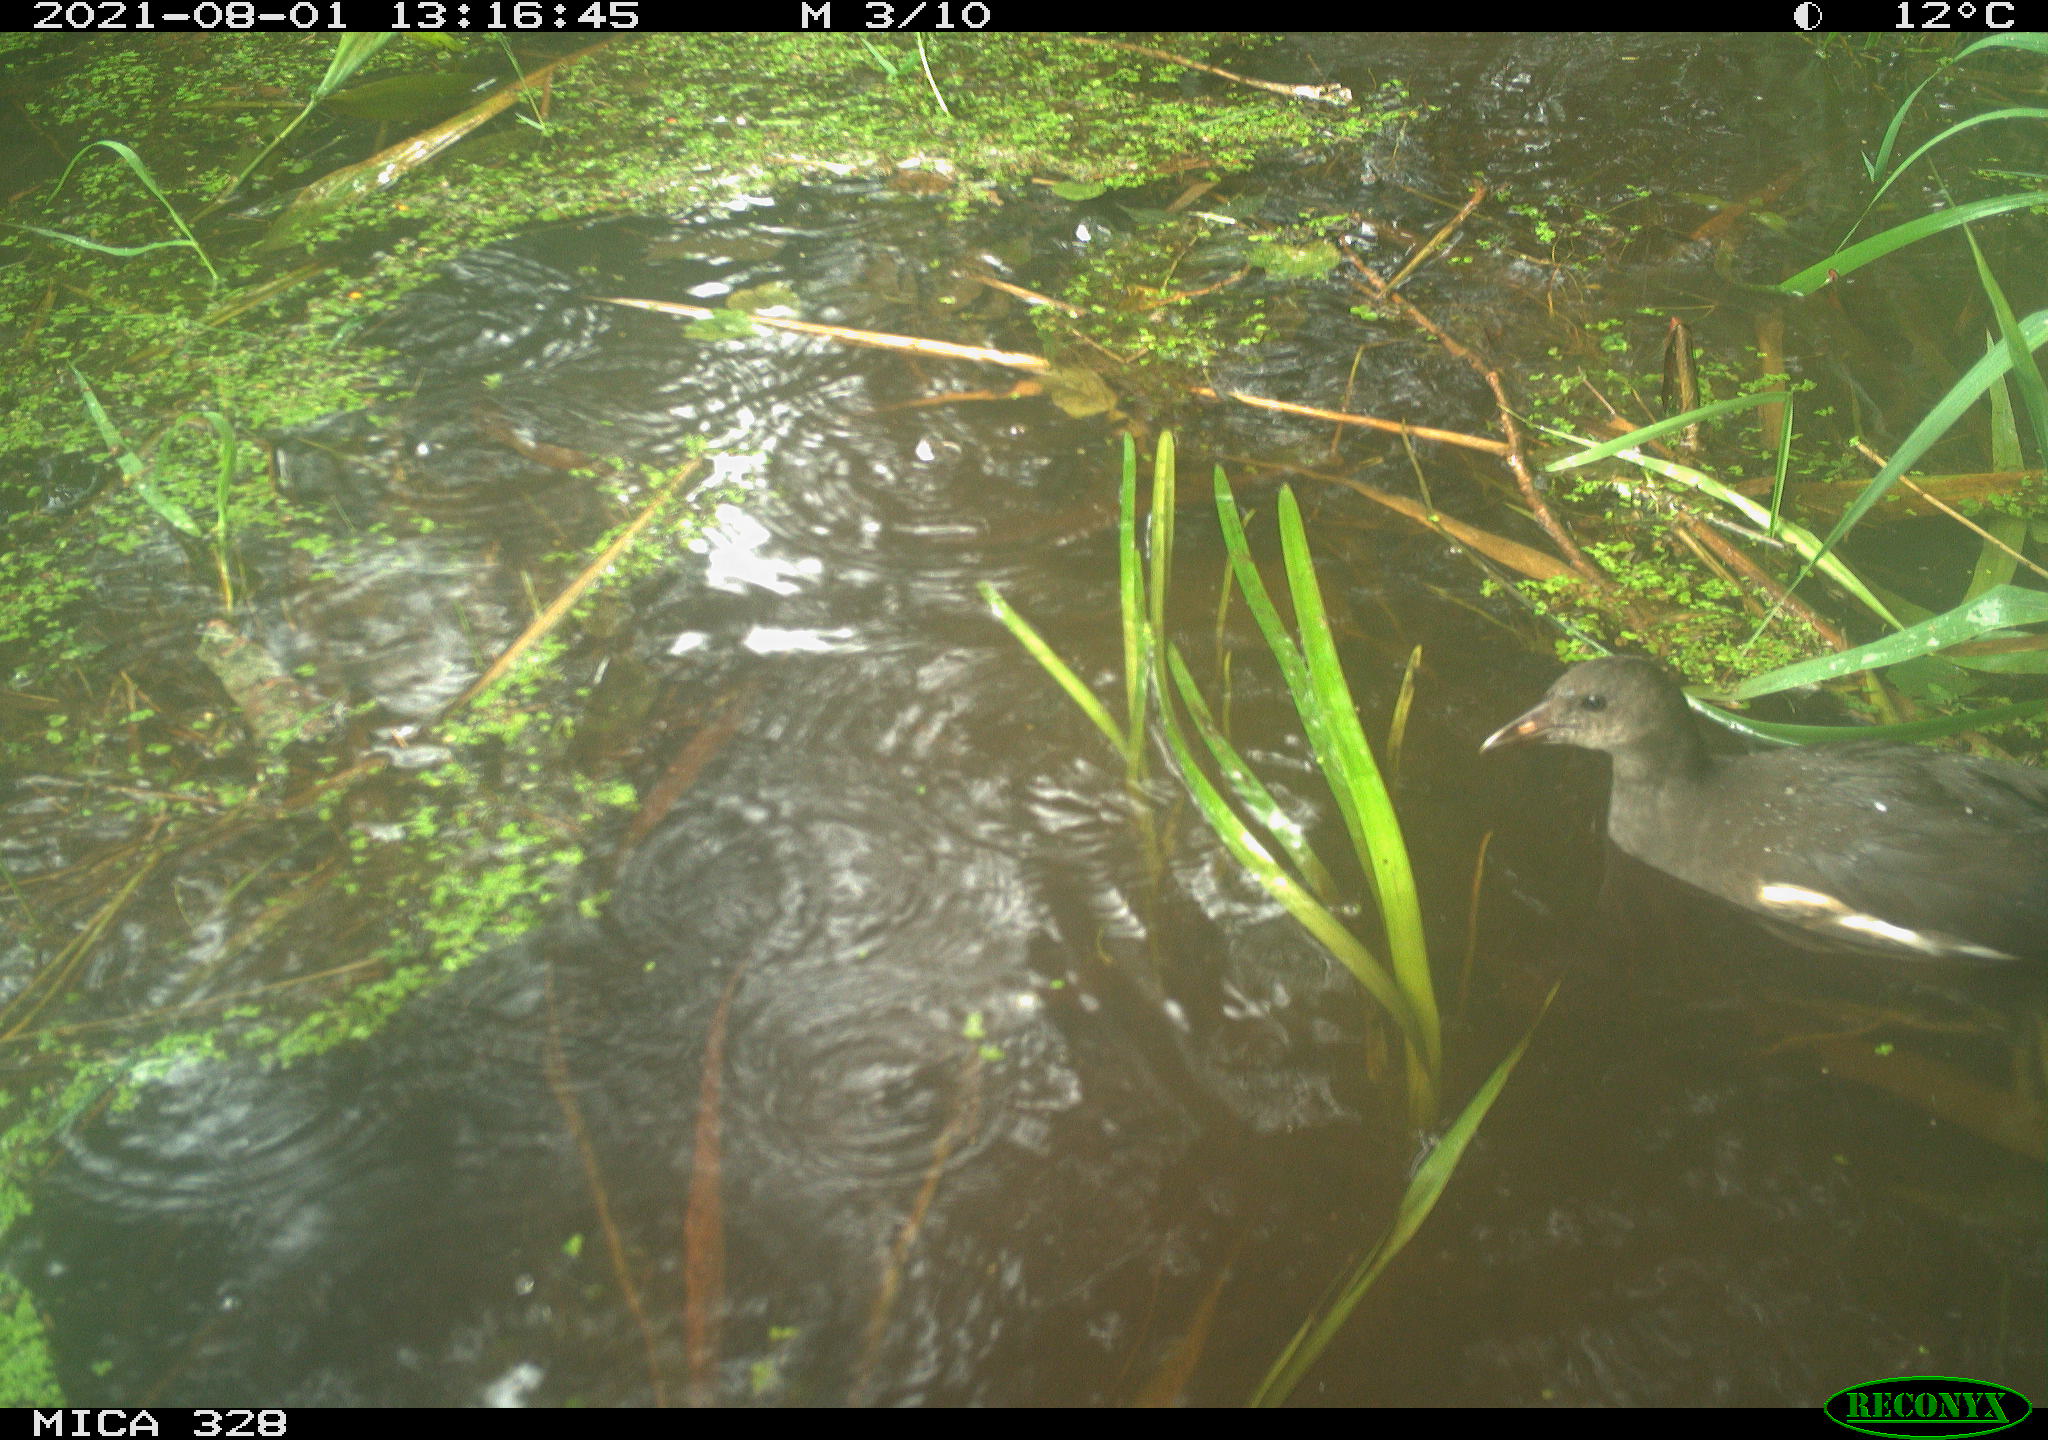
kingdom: Animalia
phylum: Chordata
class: Aves
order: Gruiformes
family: Rallidae
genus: Gallinula
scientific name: Gallinula chloropus
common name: Common moorhen
